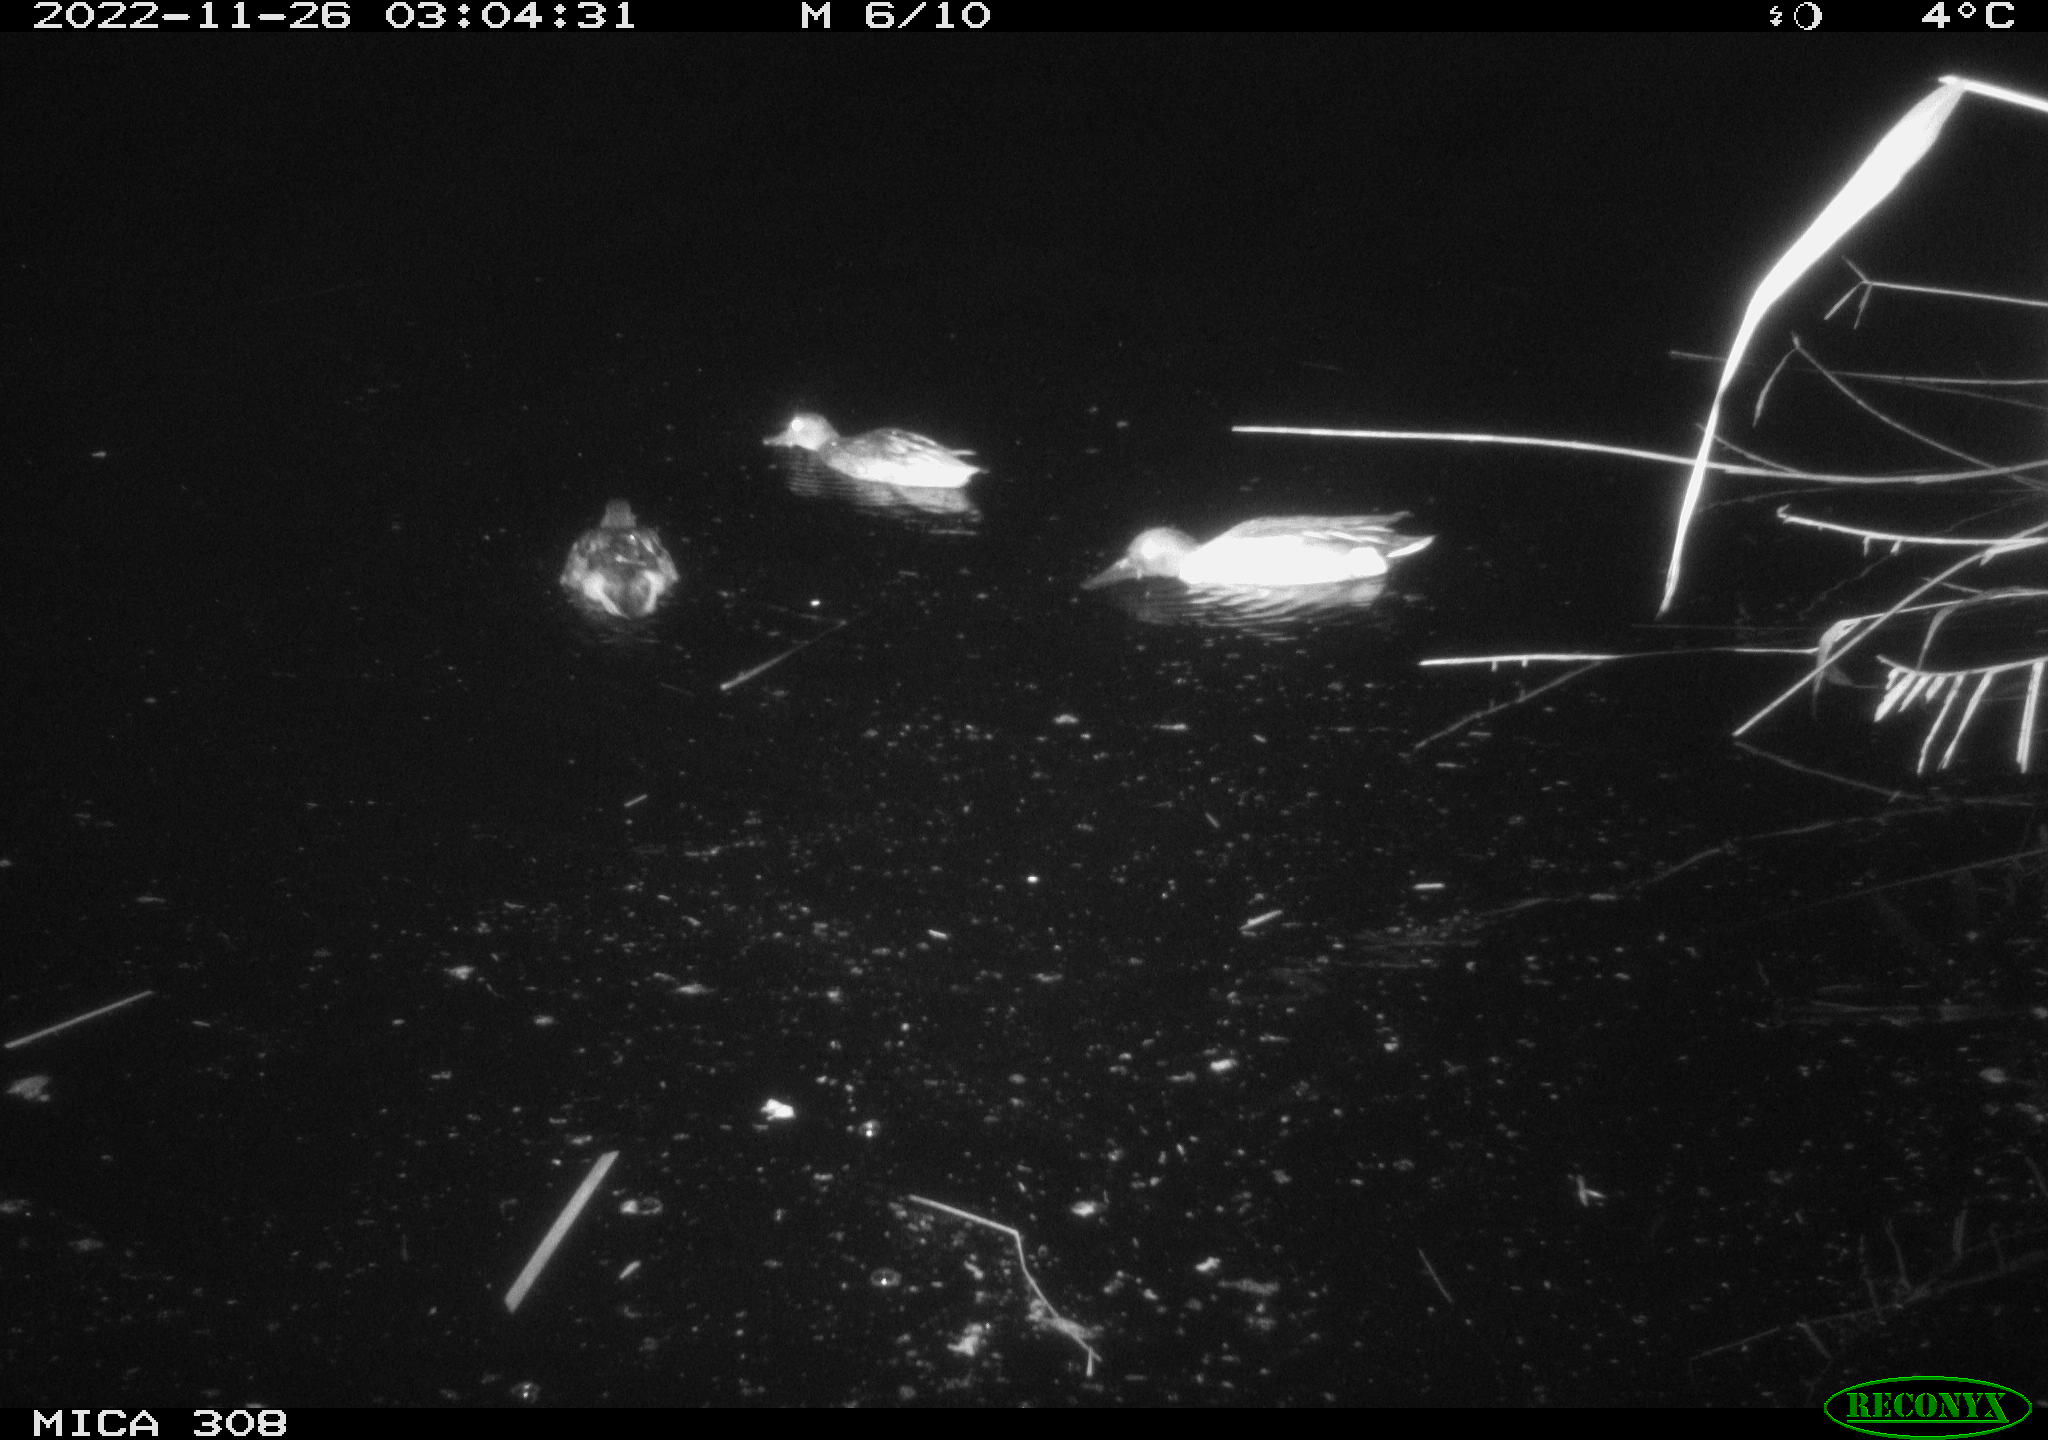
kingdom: Animalia
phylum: Chordata
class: Aves
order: Anseriformes
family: Anatidae
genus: Anas
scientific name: Anas
